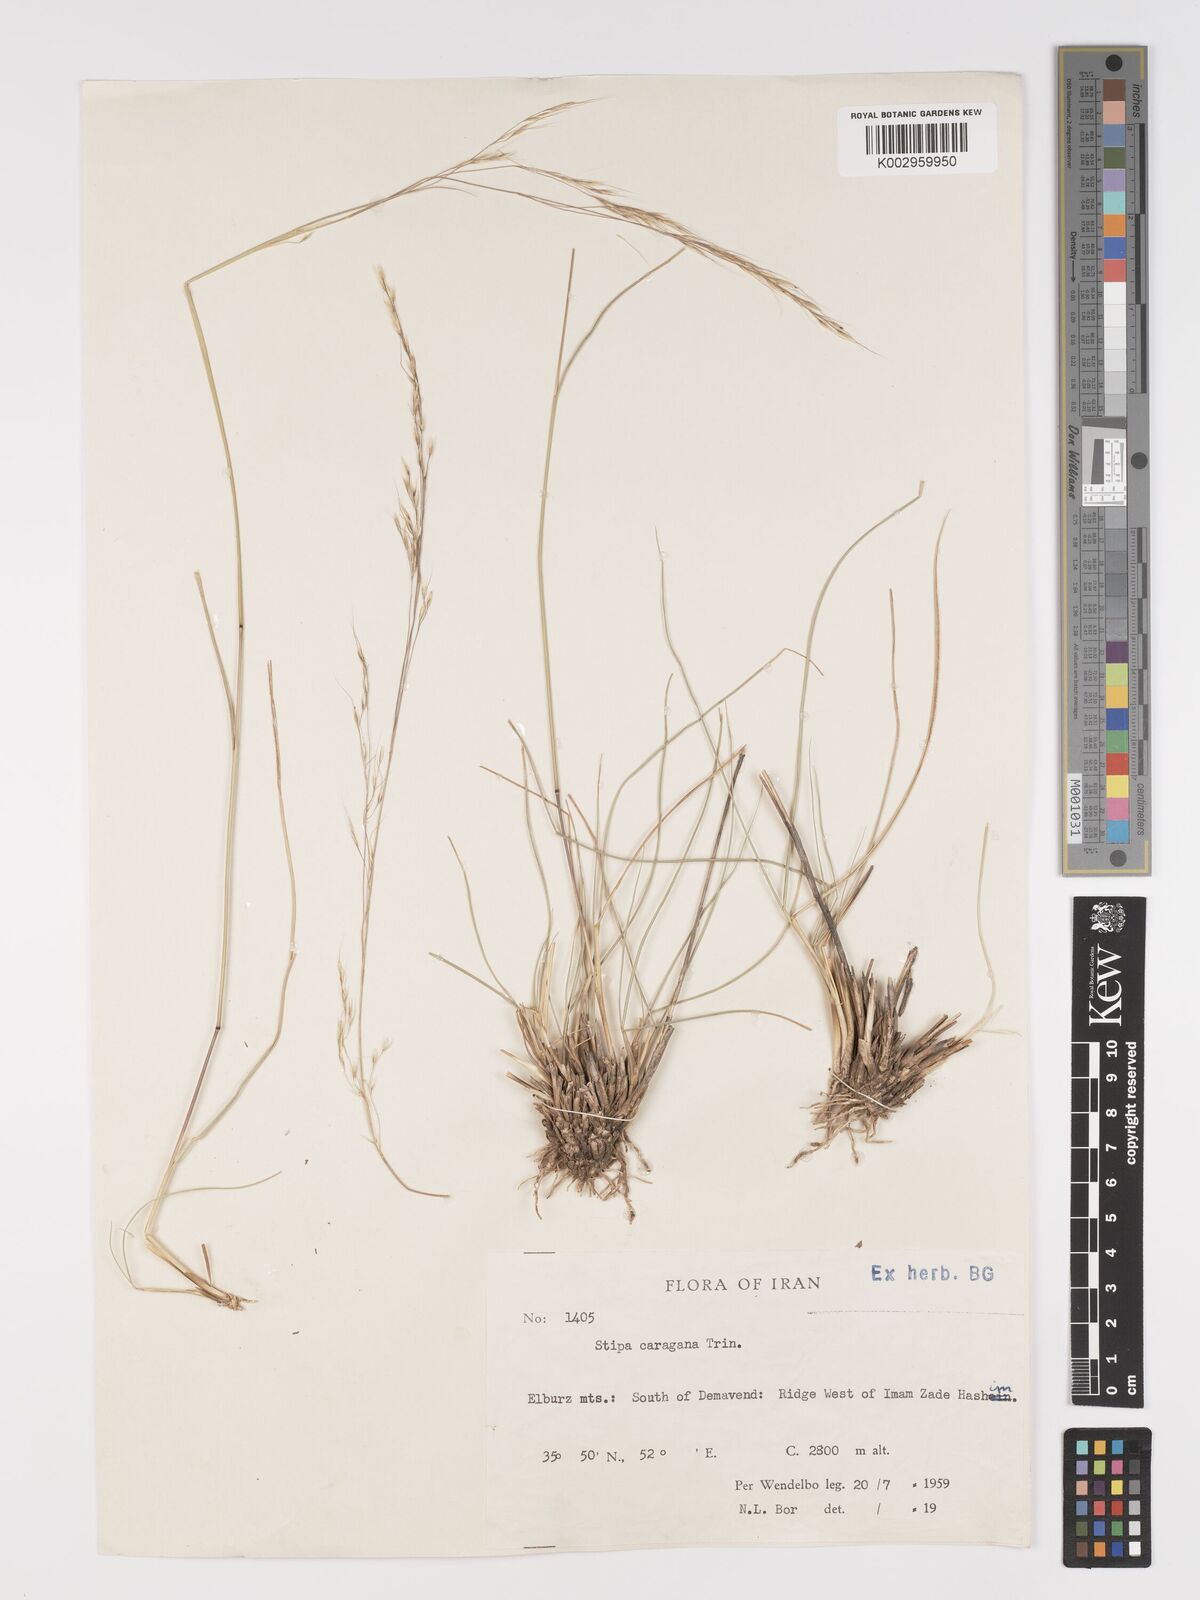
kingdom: Plantae
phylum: Tracheophyta
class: Liliopsida
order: Poales
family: Poaceae
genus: Stipa
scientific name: Stipa conferta
